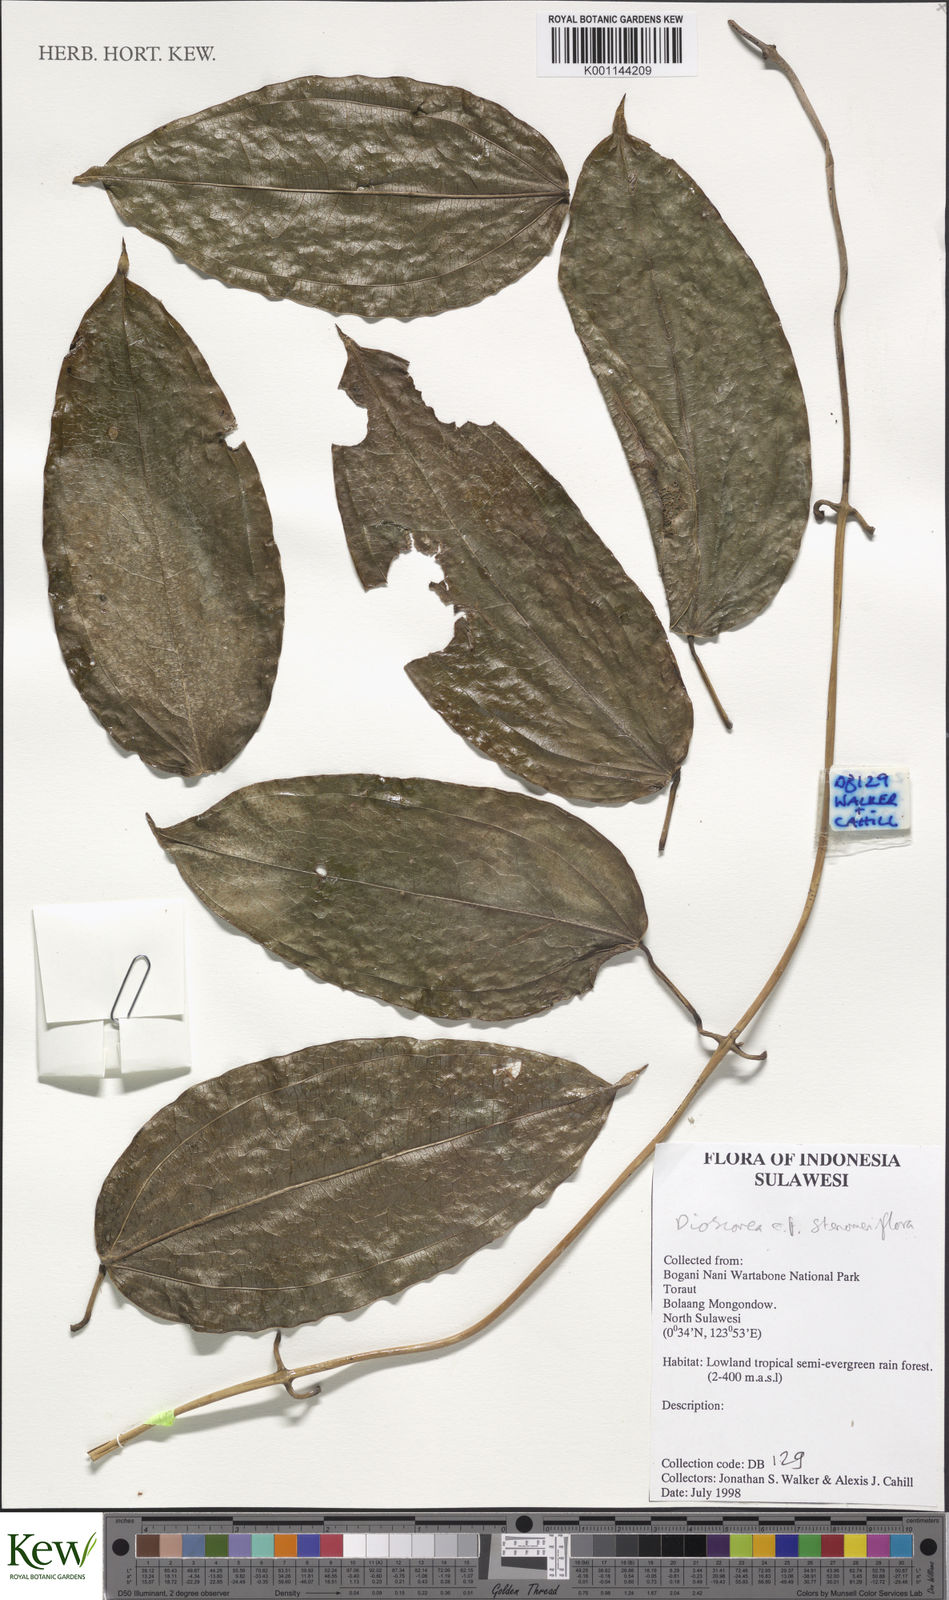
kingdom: Plantae
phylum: Tracheophyta
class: Liliopsida
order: Dioscoreales
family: Dioscoreaceae
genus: Dioscorea
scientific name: Dioscorea stenomeriflora
